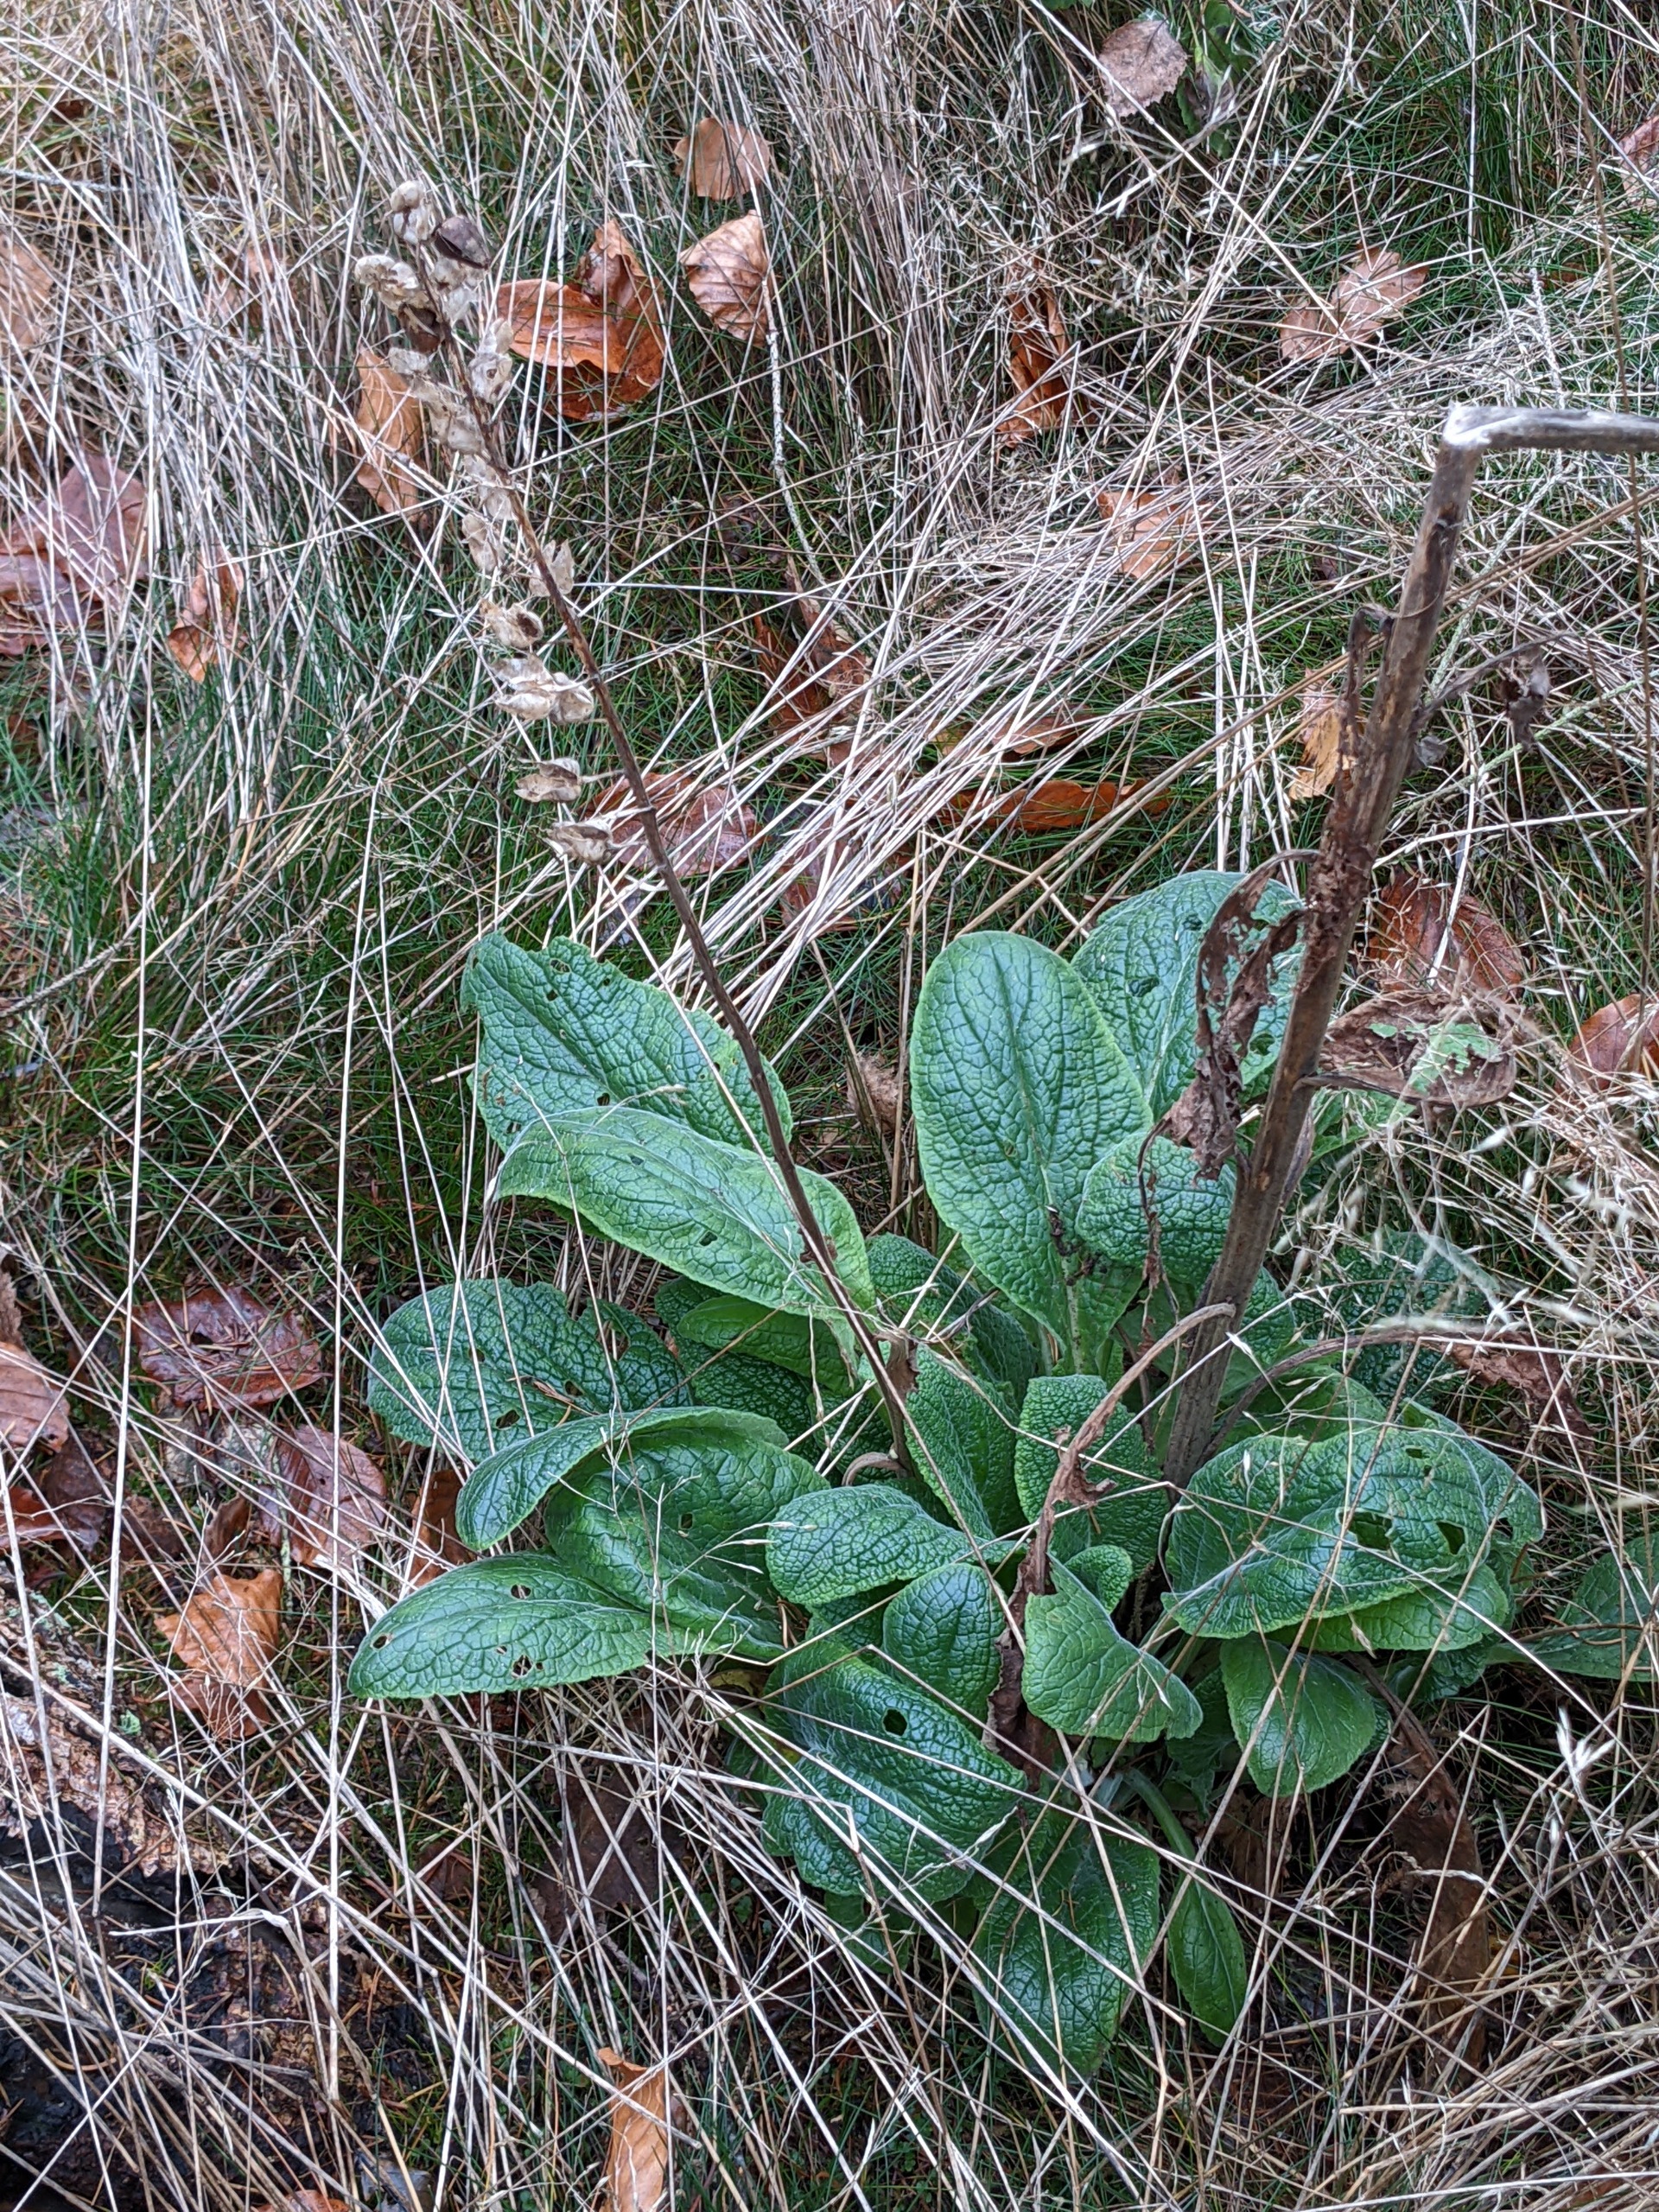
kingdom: Plantae
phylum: Tracheophyta
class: Magnoliopsida
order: Lamiales
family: Plantaginaceae
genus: Digitalis
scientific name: Digitalis purpurea
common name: Almindelig fingerbøl
